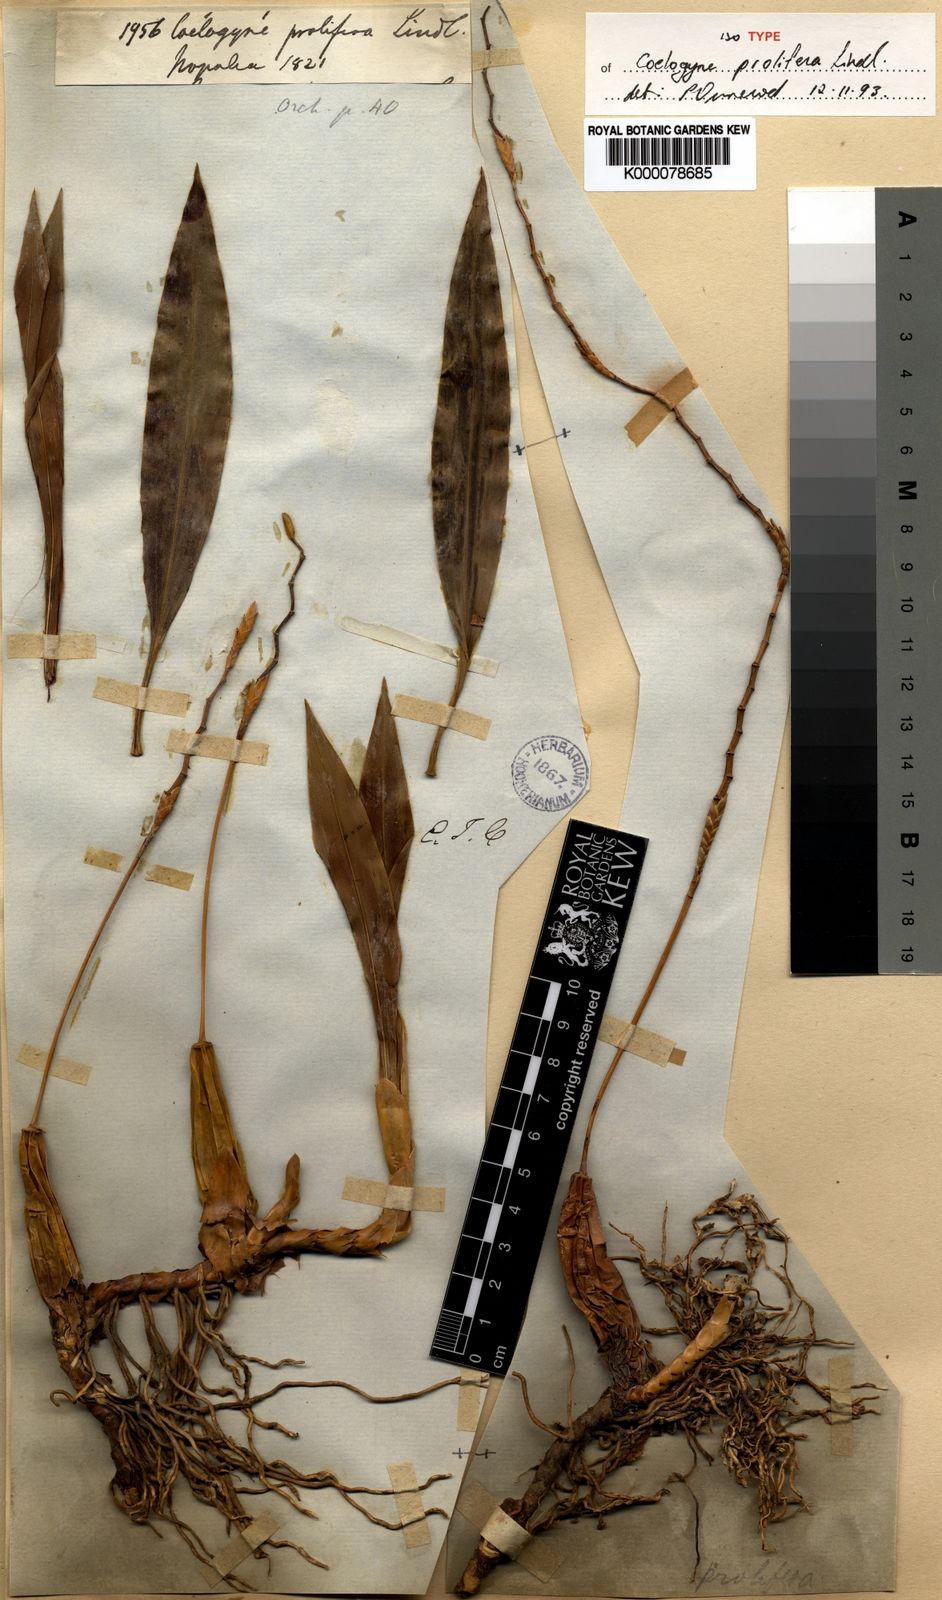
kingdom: Plantae
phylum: Tracheophyta
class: Liliopsida
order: Asparagales
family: Orchidaceae
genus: Coelogyne
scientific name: Coelogyne prolifera
